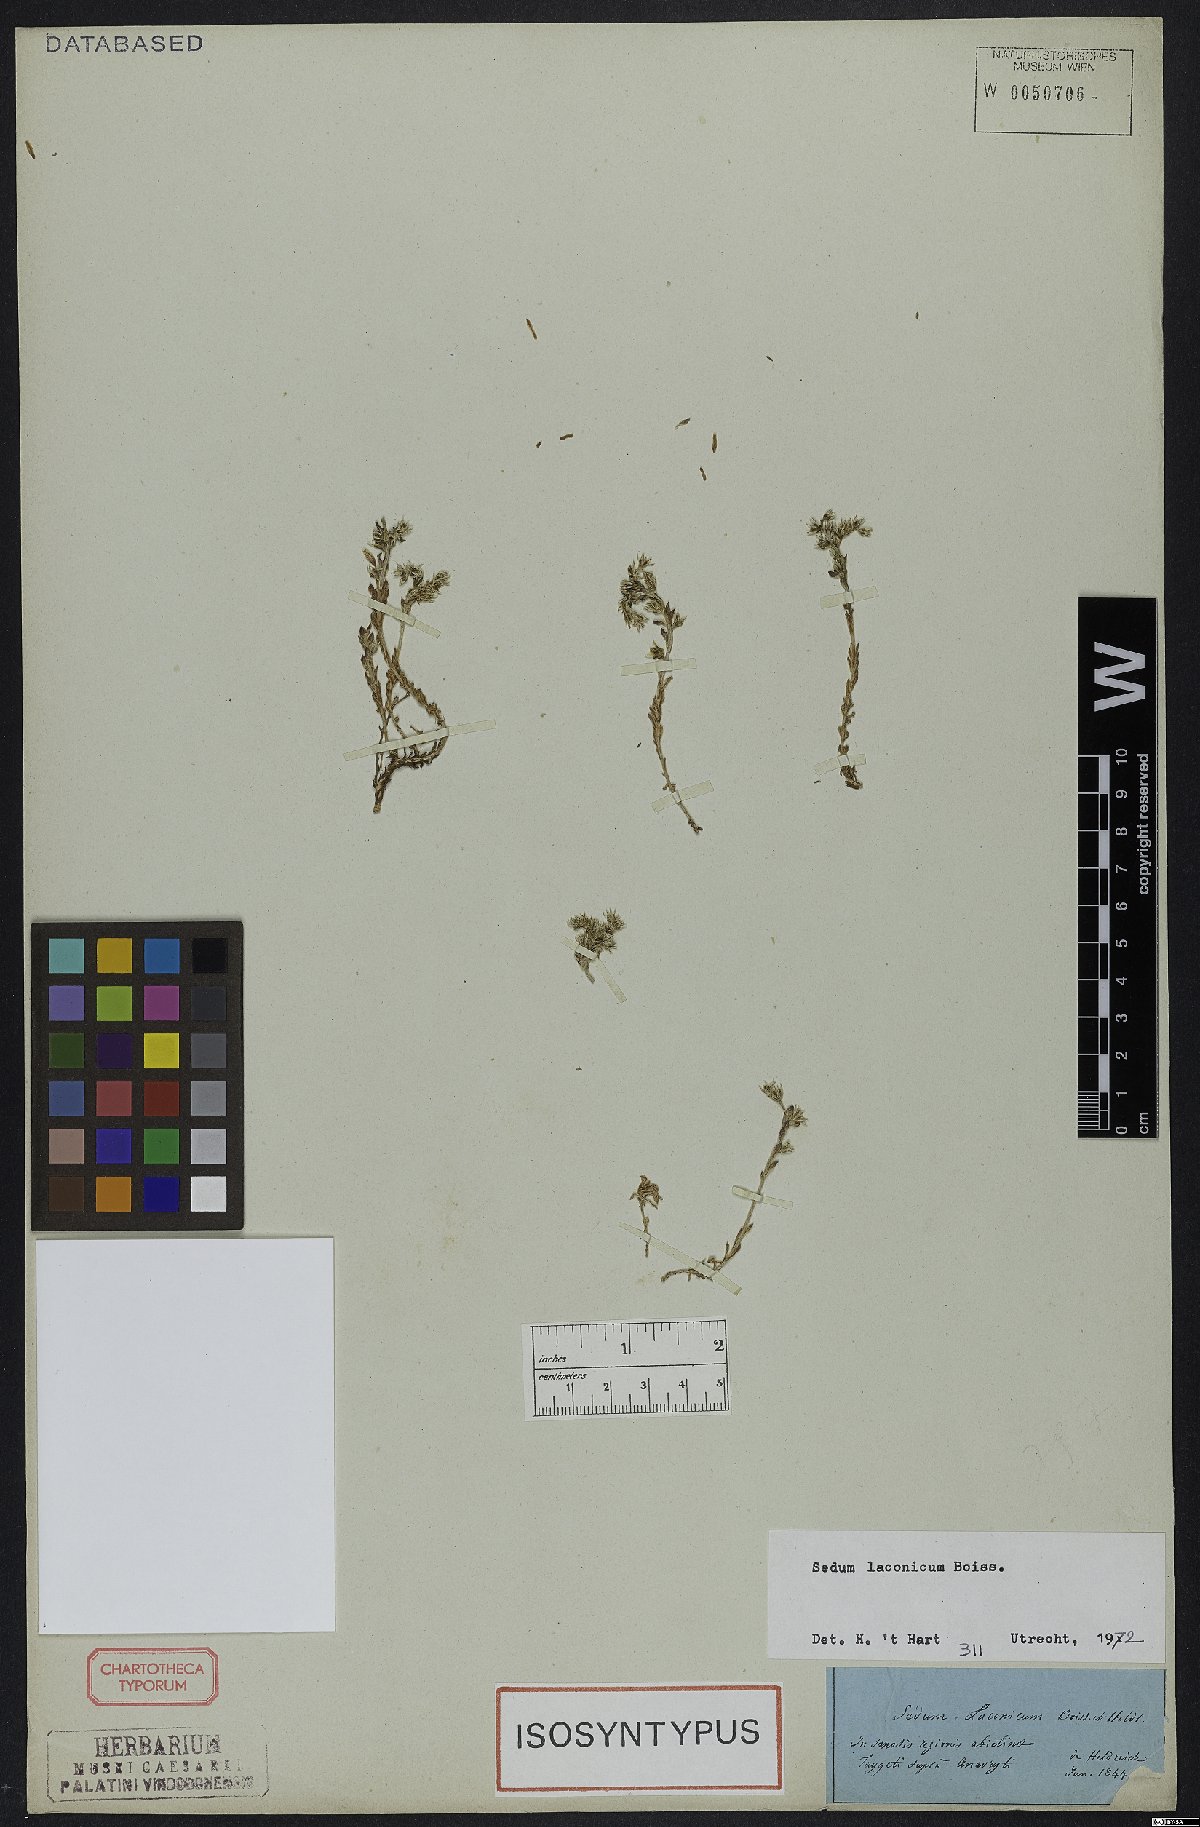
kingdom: Plantae
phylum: Tracheophyta
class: Magnoliopsida
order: Saxifragales
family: Crassulaceae
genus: Sedum
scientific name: Sedum laconicum
